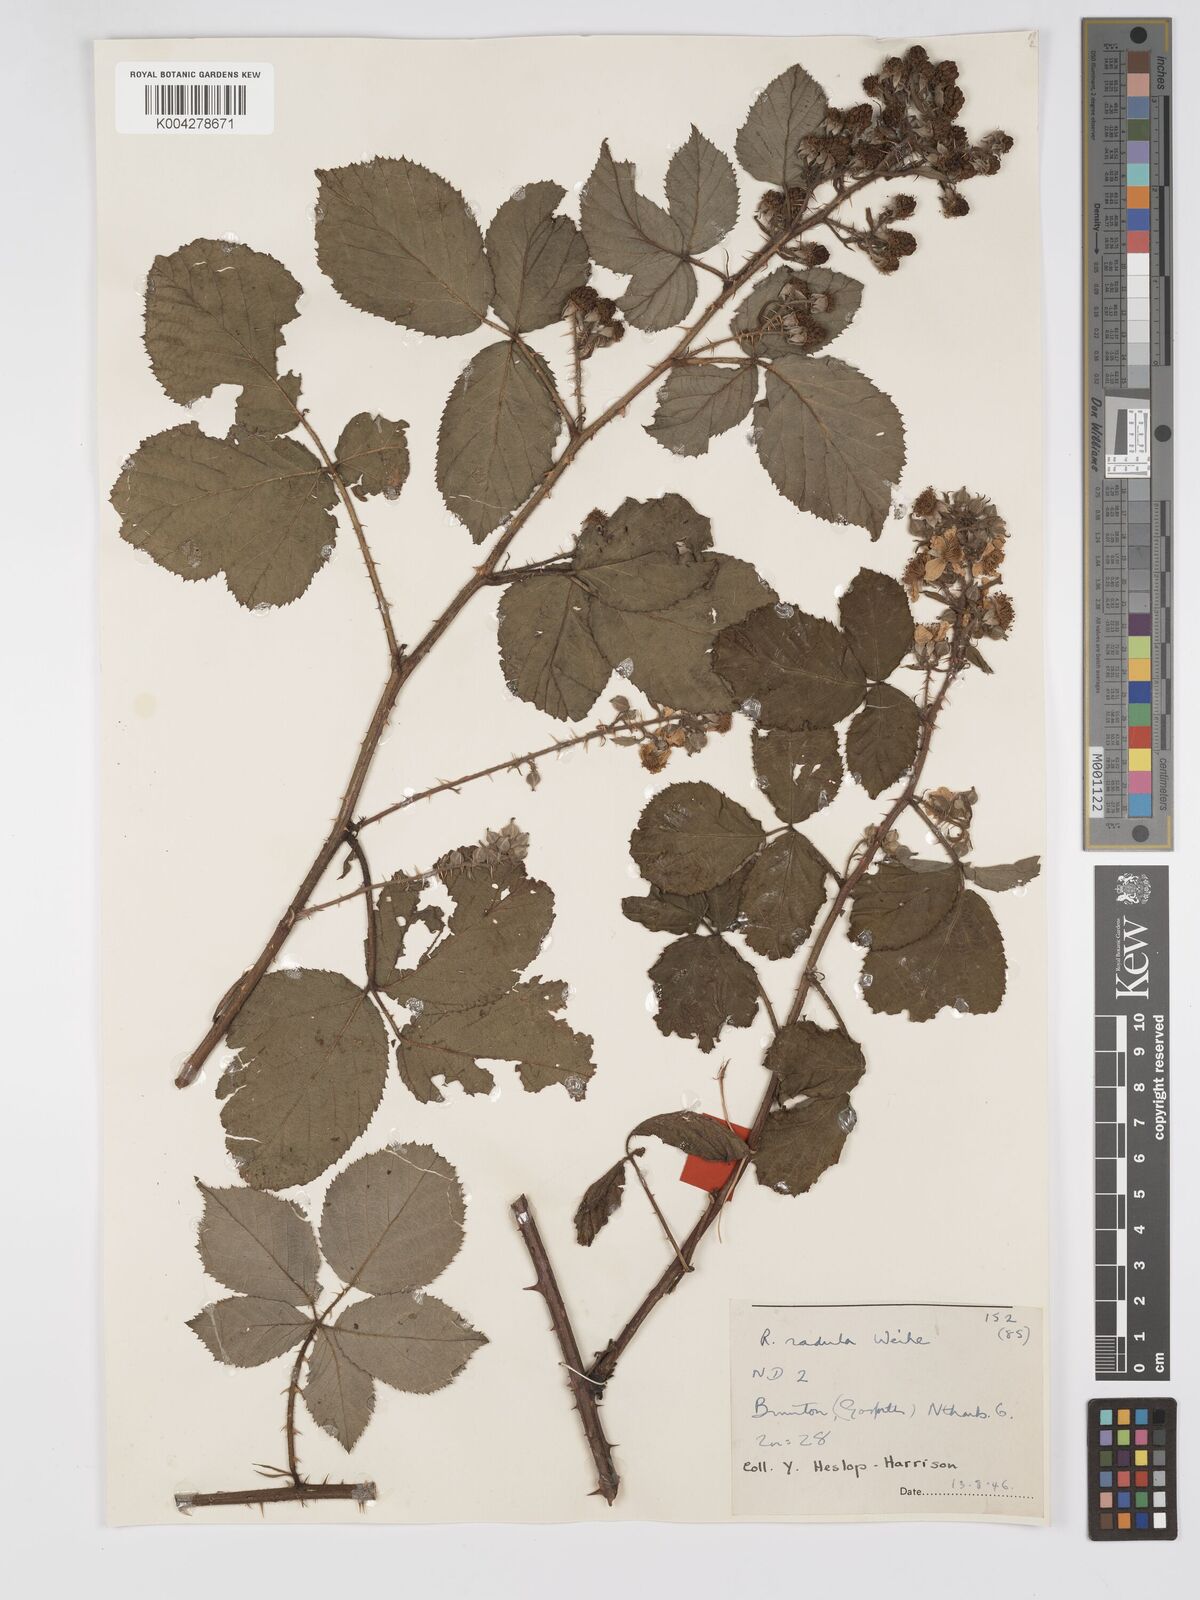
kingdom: Plantae
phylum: Tracheophyta
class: Magnoliopsida
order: Rosales
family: Rosaceae
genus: Rubus
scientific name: Rubus radula
